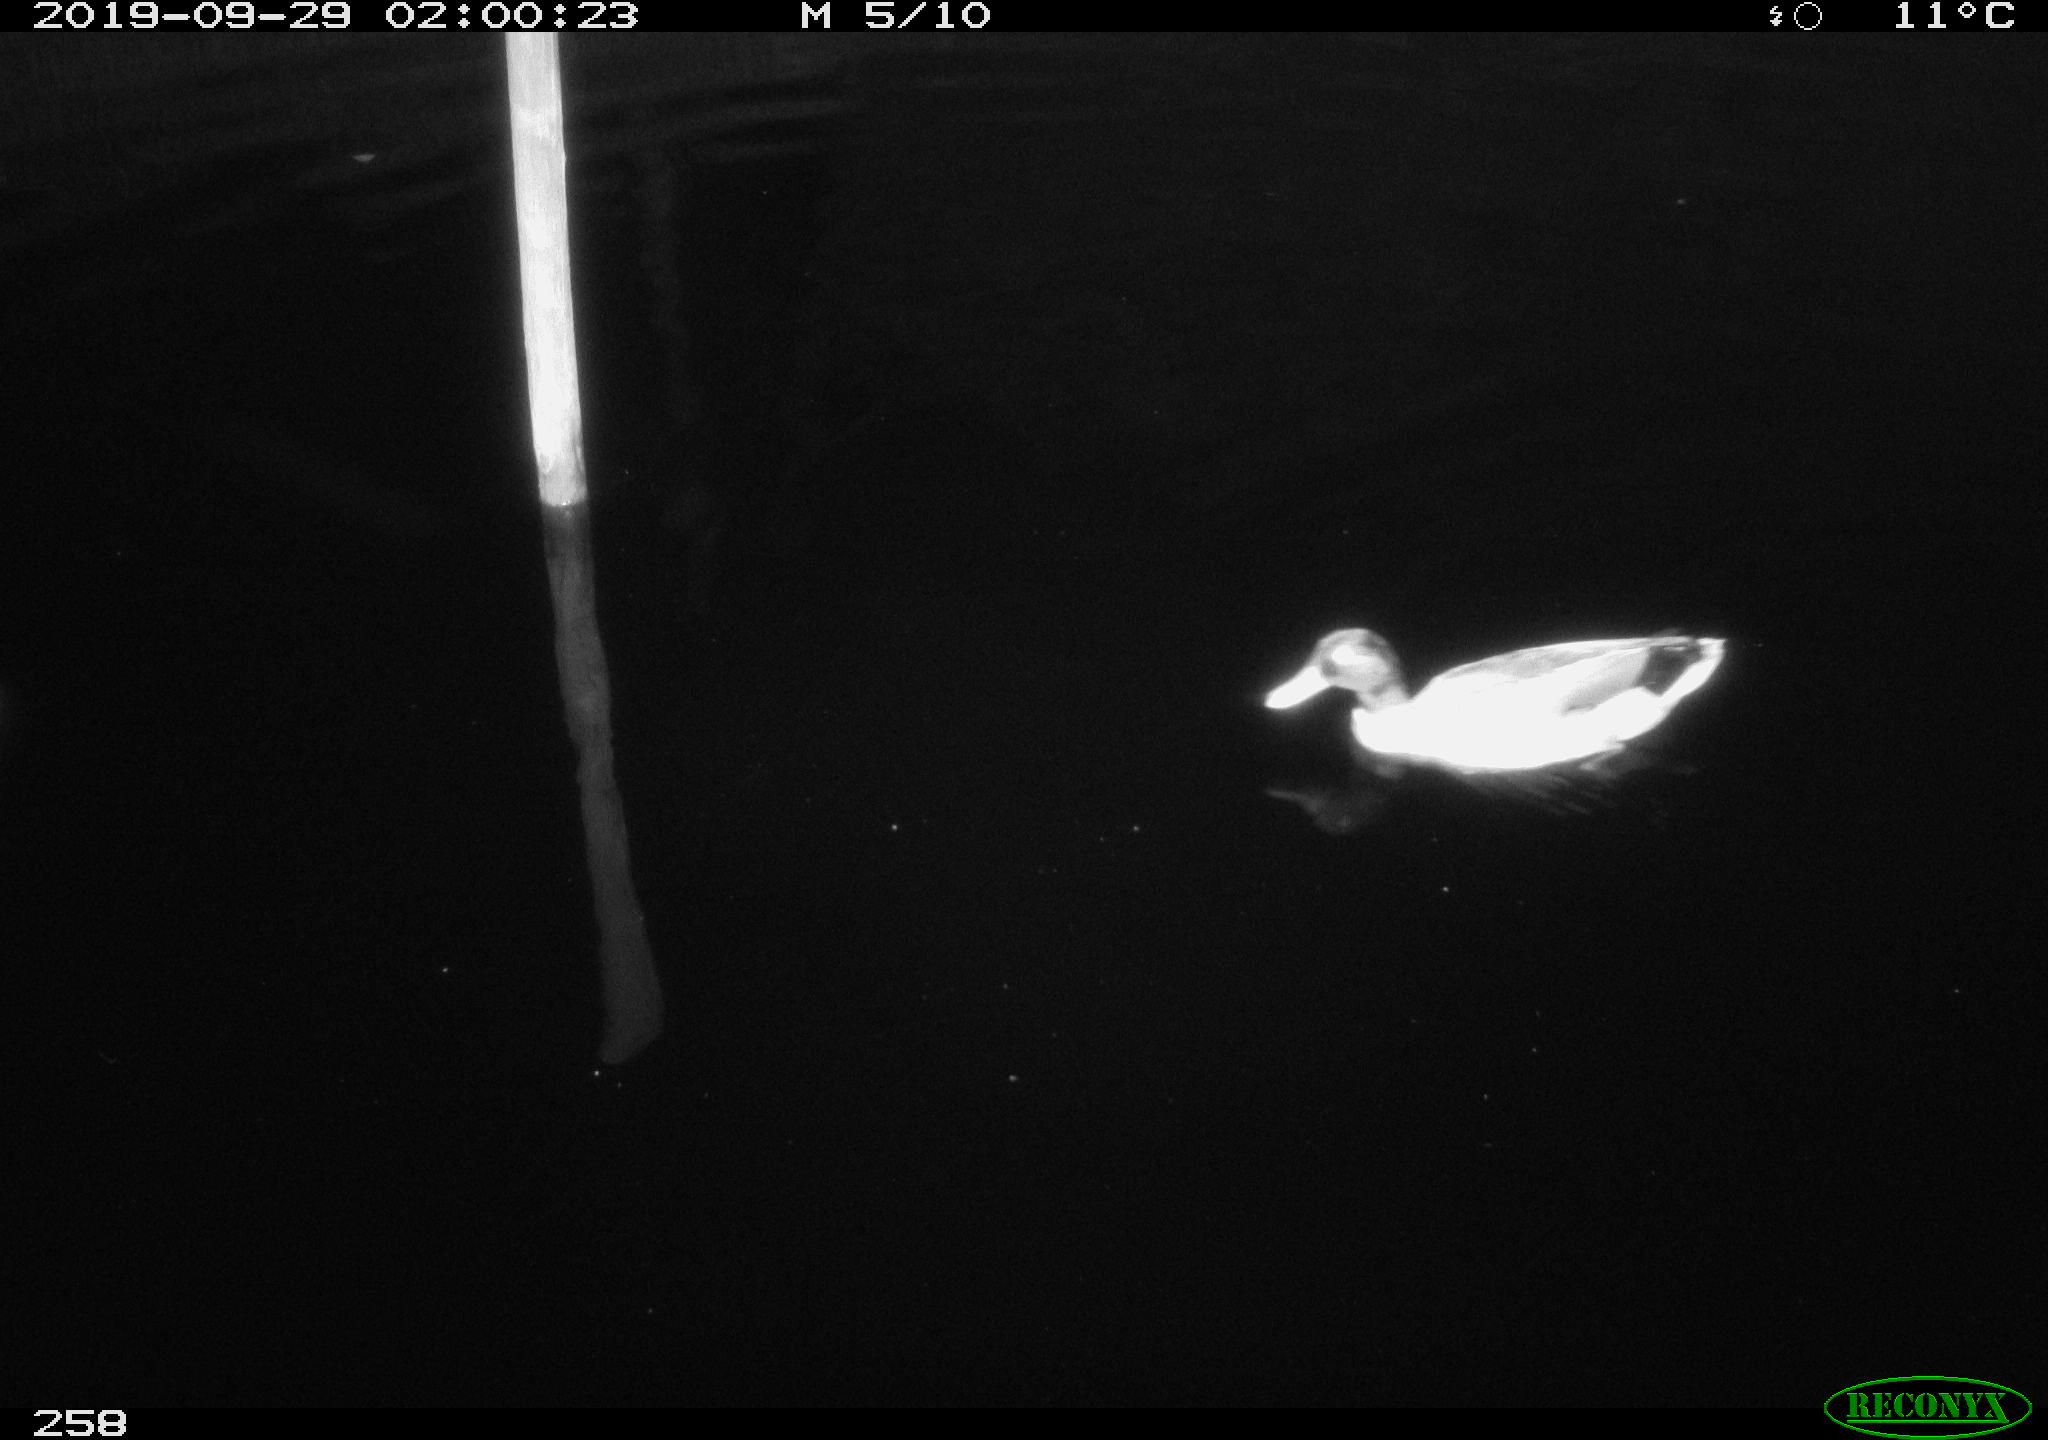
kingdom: Animalia
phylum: Chordata
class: Aves
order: Anseriformes
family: Anatidae
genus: Anas
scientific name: Anas platyrhynchos
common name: Mallard
